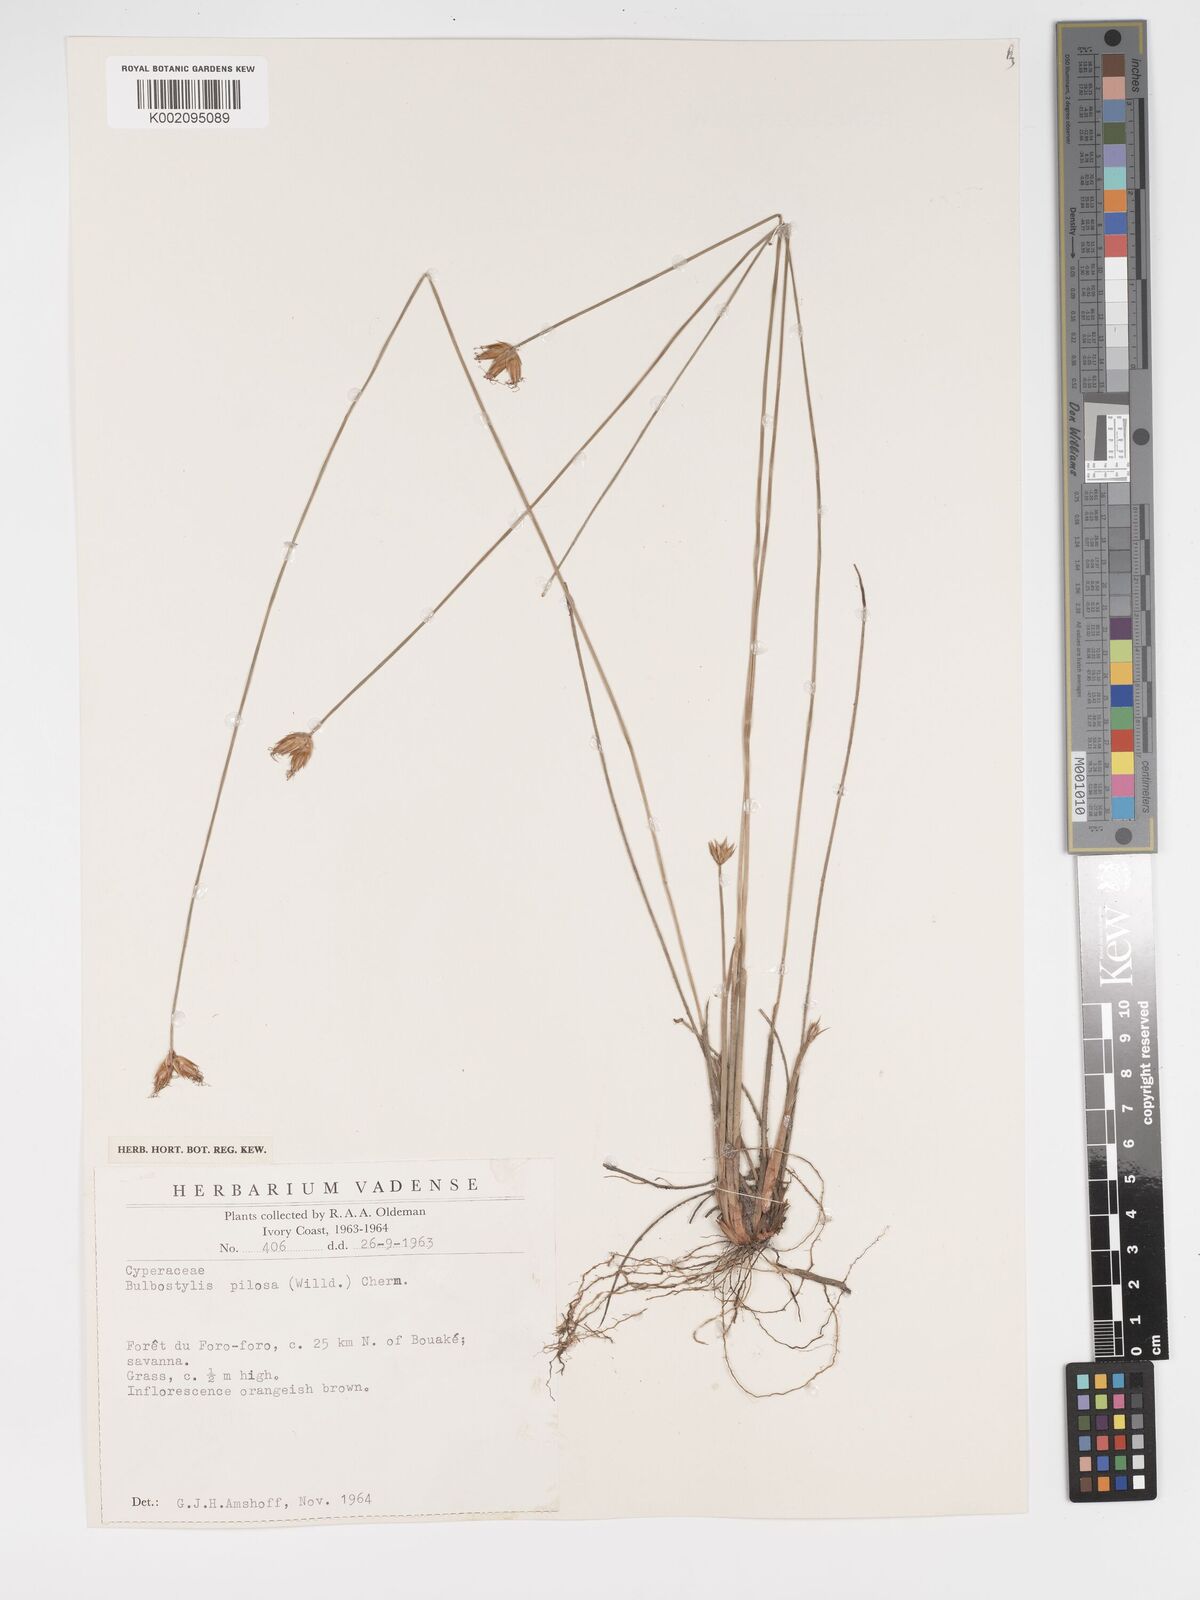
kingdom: Plantae
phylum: Tracheophyta
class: Liliopsida
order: Poales
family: Cyperaceae
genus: Bulbostylis
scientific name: Bulbostylis pilosa
